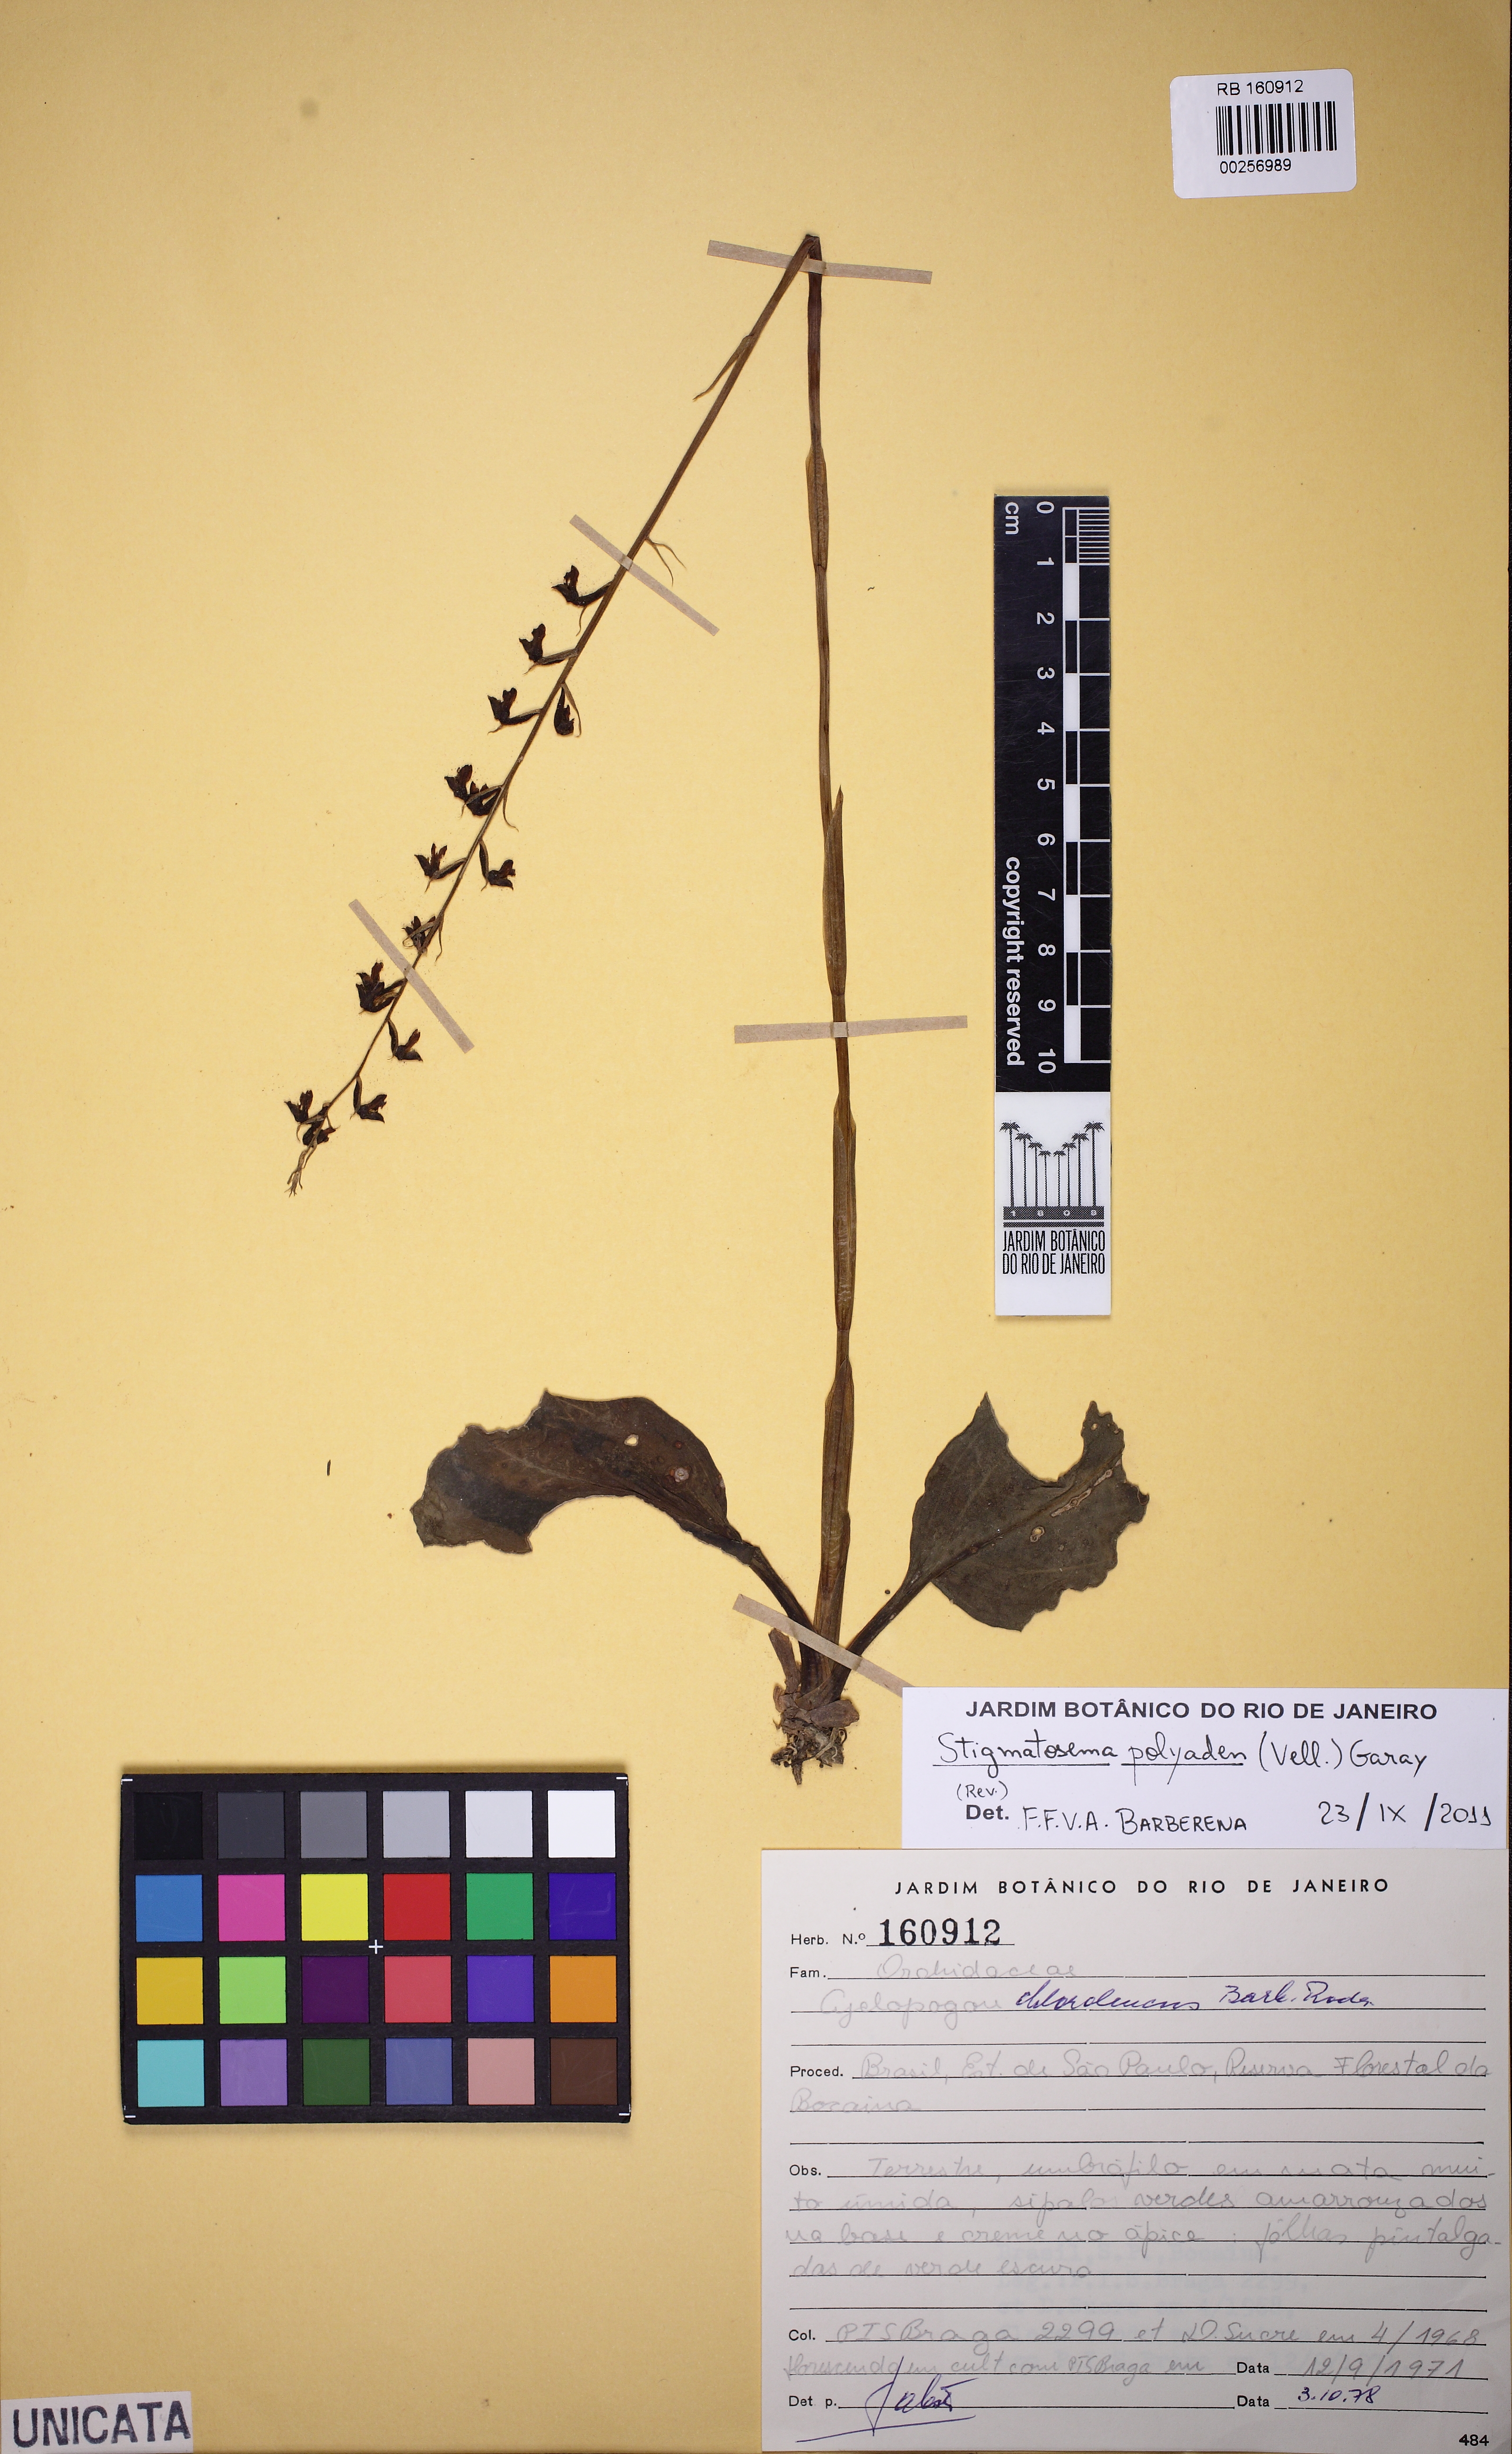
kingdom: Plantae
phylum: Tracheophyta
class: Liliopsida
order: Asparagales
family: Orchidaceae
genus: Serapias
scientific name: Serapias polyaden
